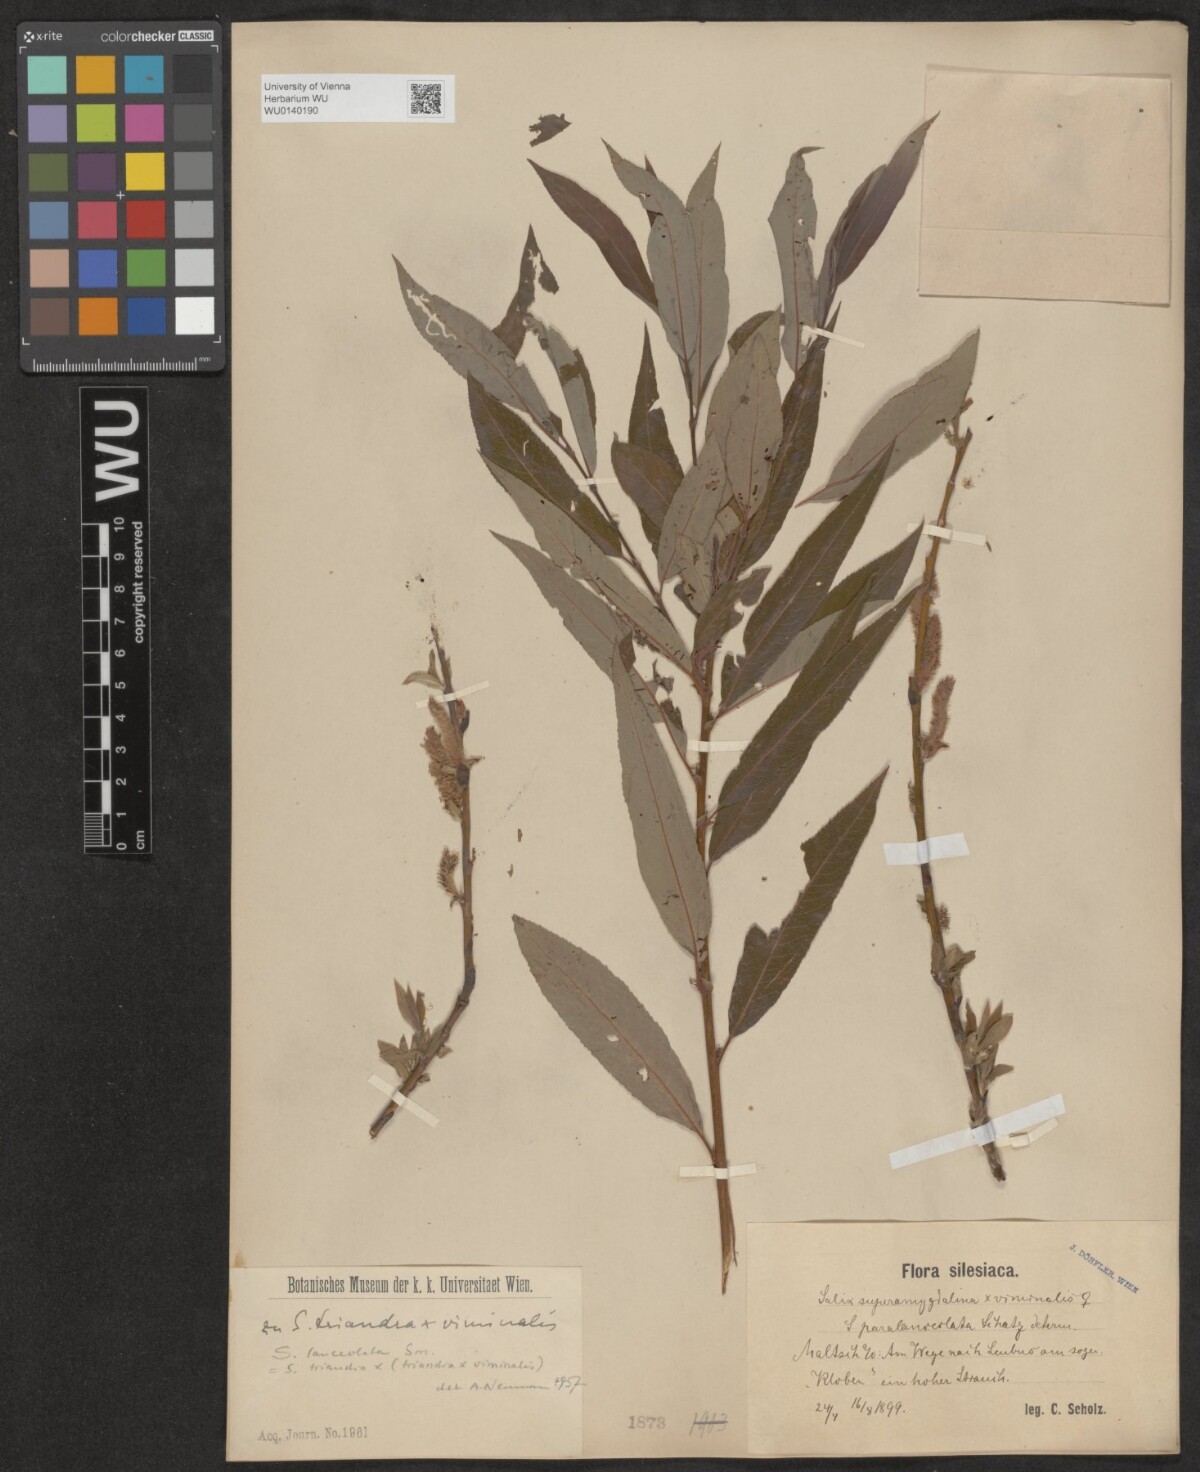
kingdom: Plantae
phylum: Tracheophyta
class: Magnoliopsida
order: Malpighiales
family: Salicaceae
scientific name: Salicaceae
